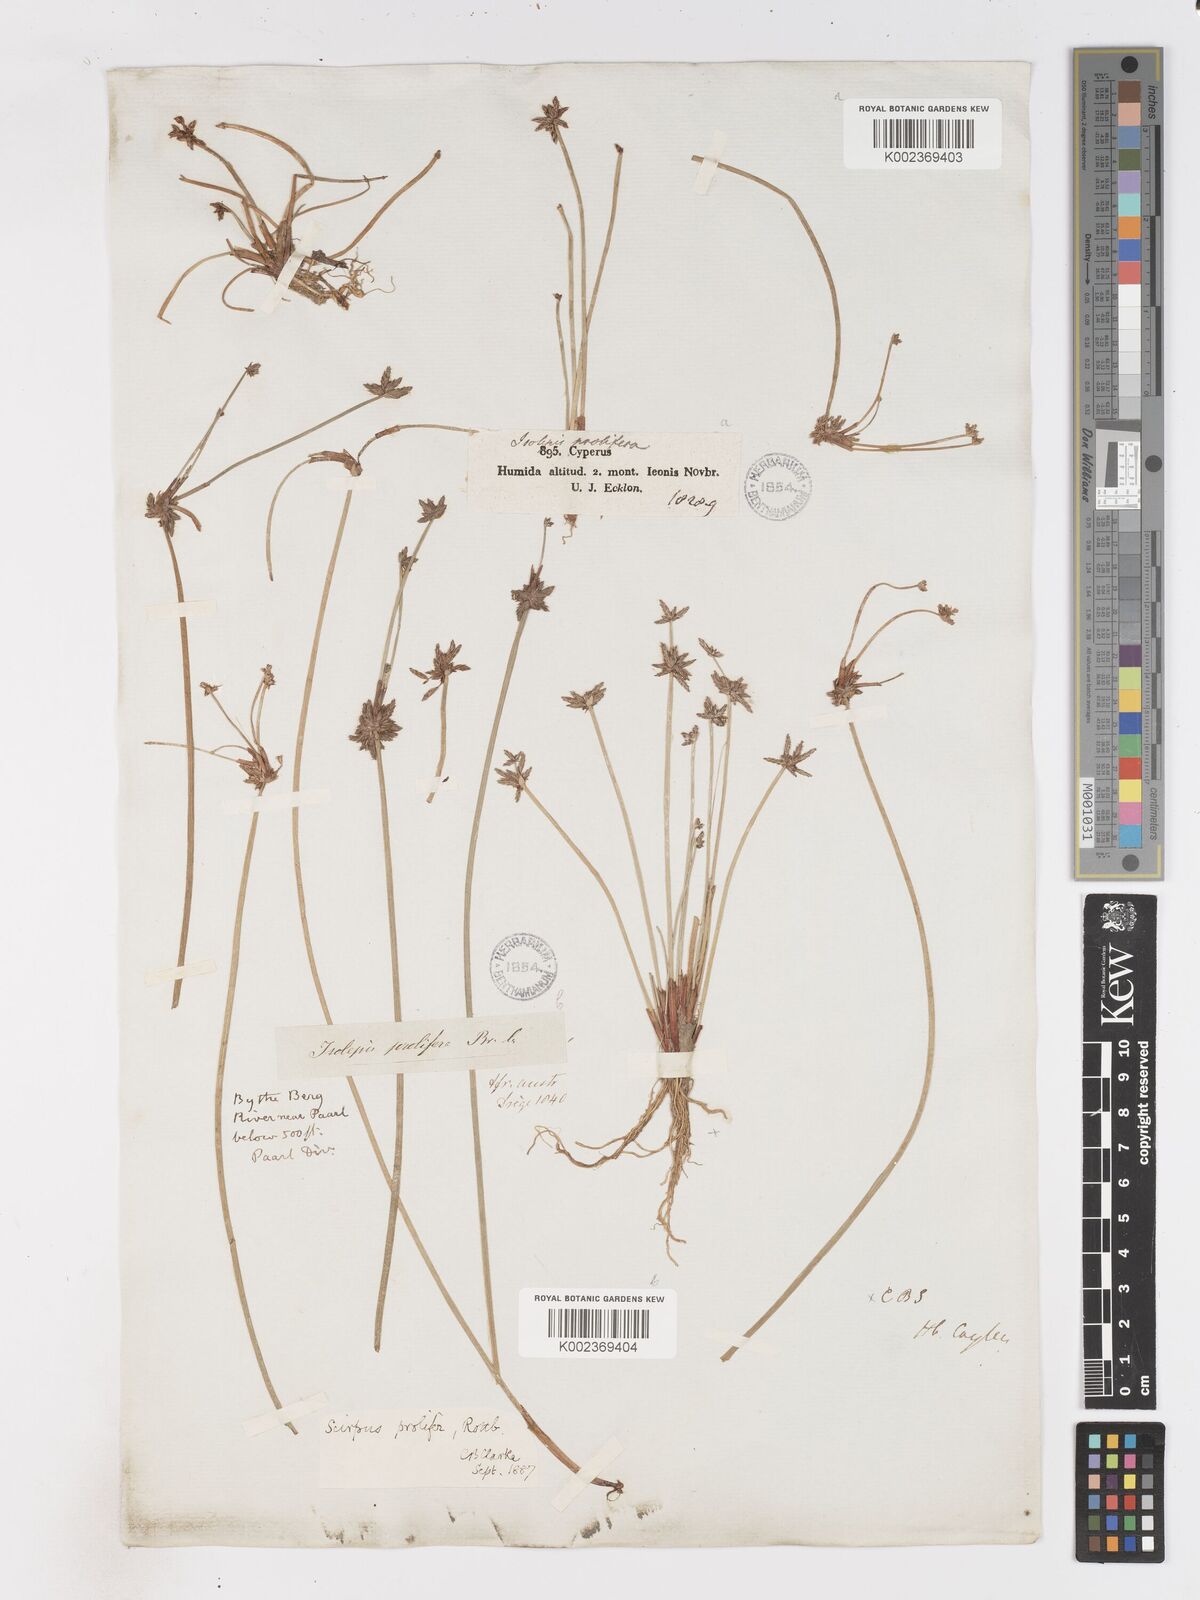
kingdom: Plantae
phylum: Tracheophyta
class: Liliopsida
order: Poales
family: Cyperaceae
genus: Isolepis
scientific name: Isolepis prolifera
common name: Proliferating bulrush
